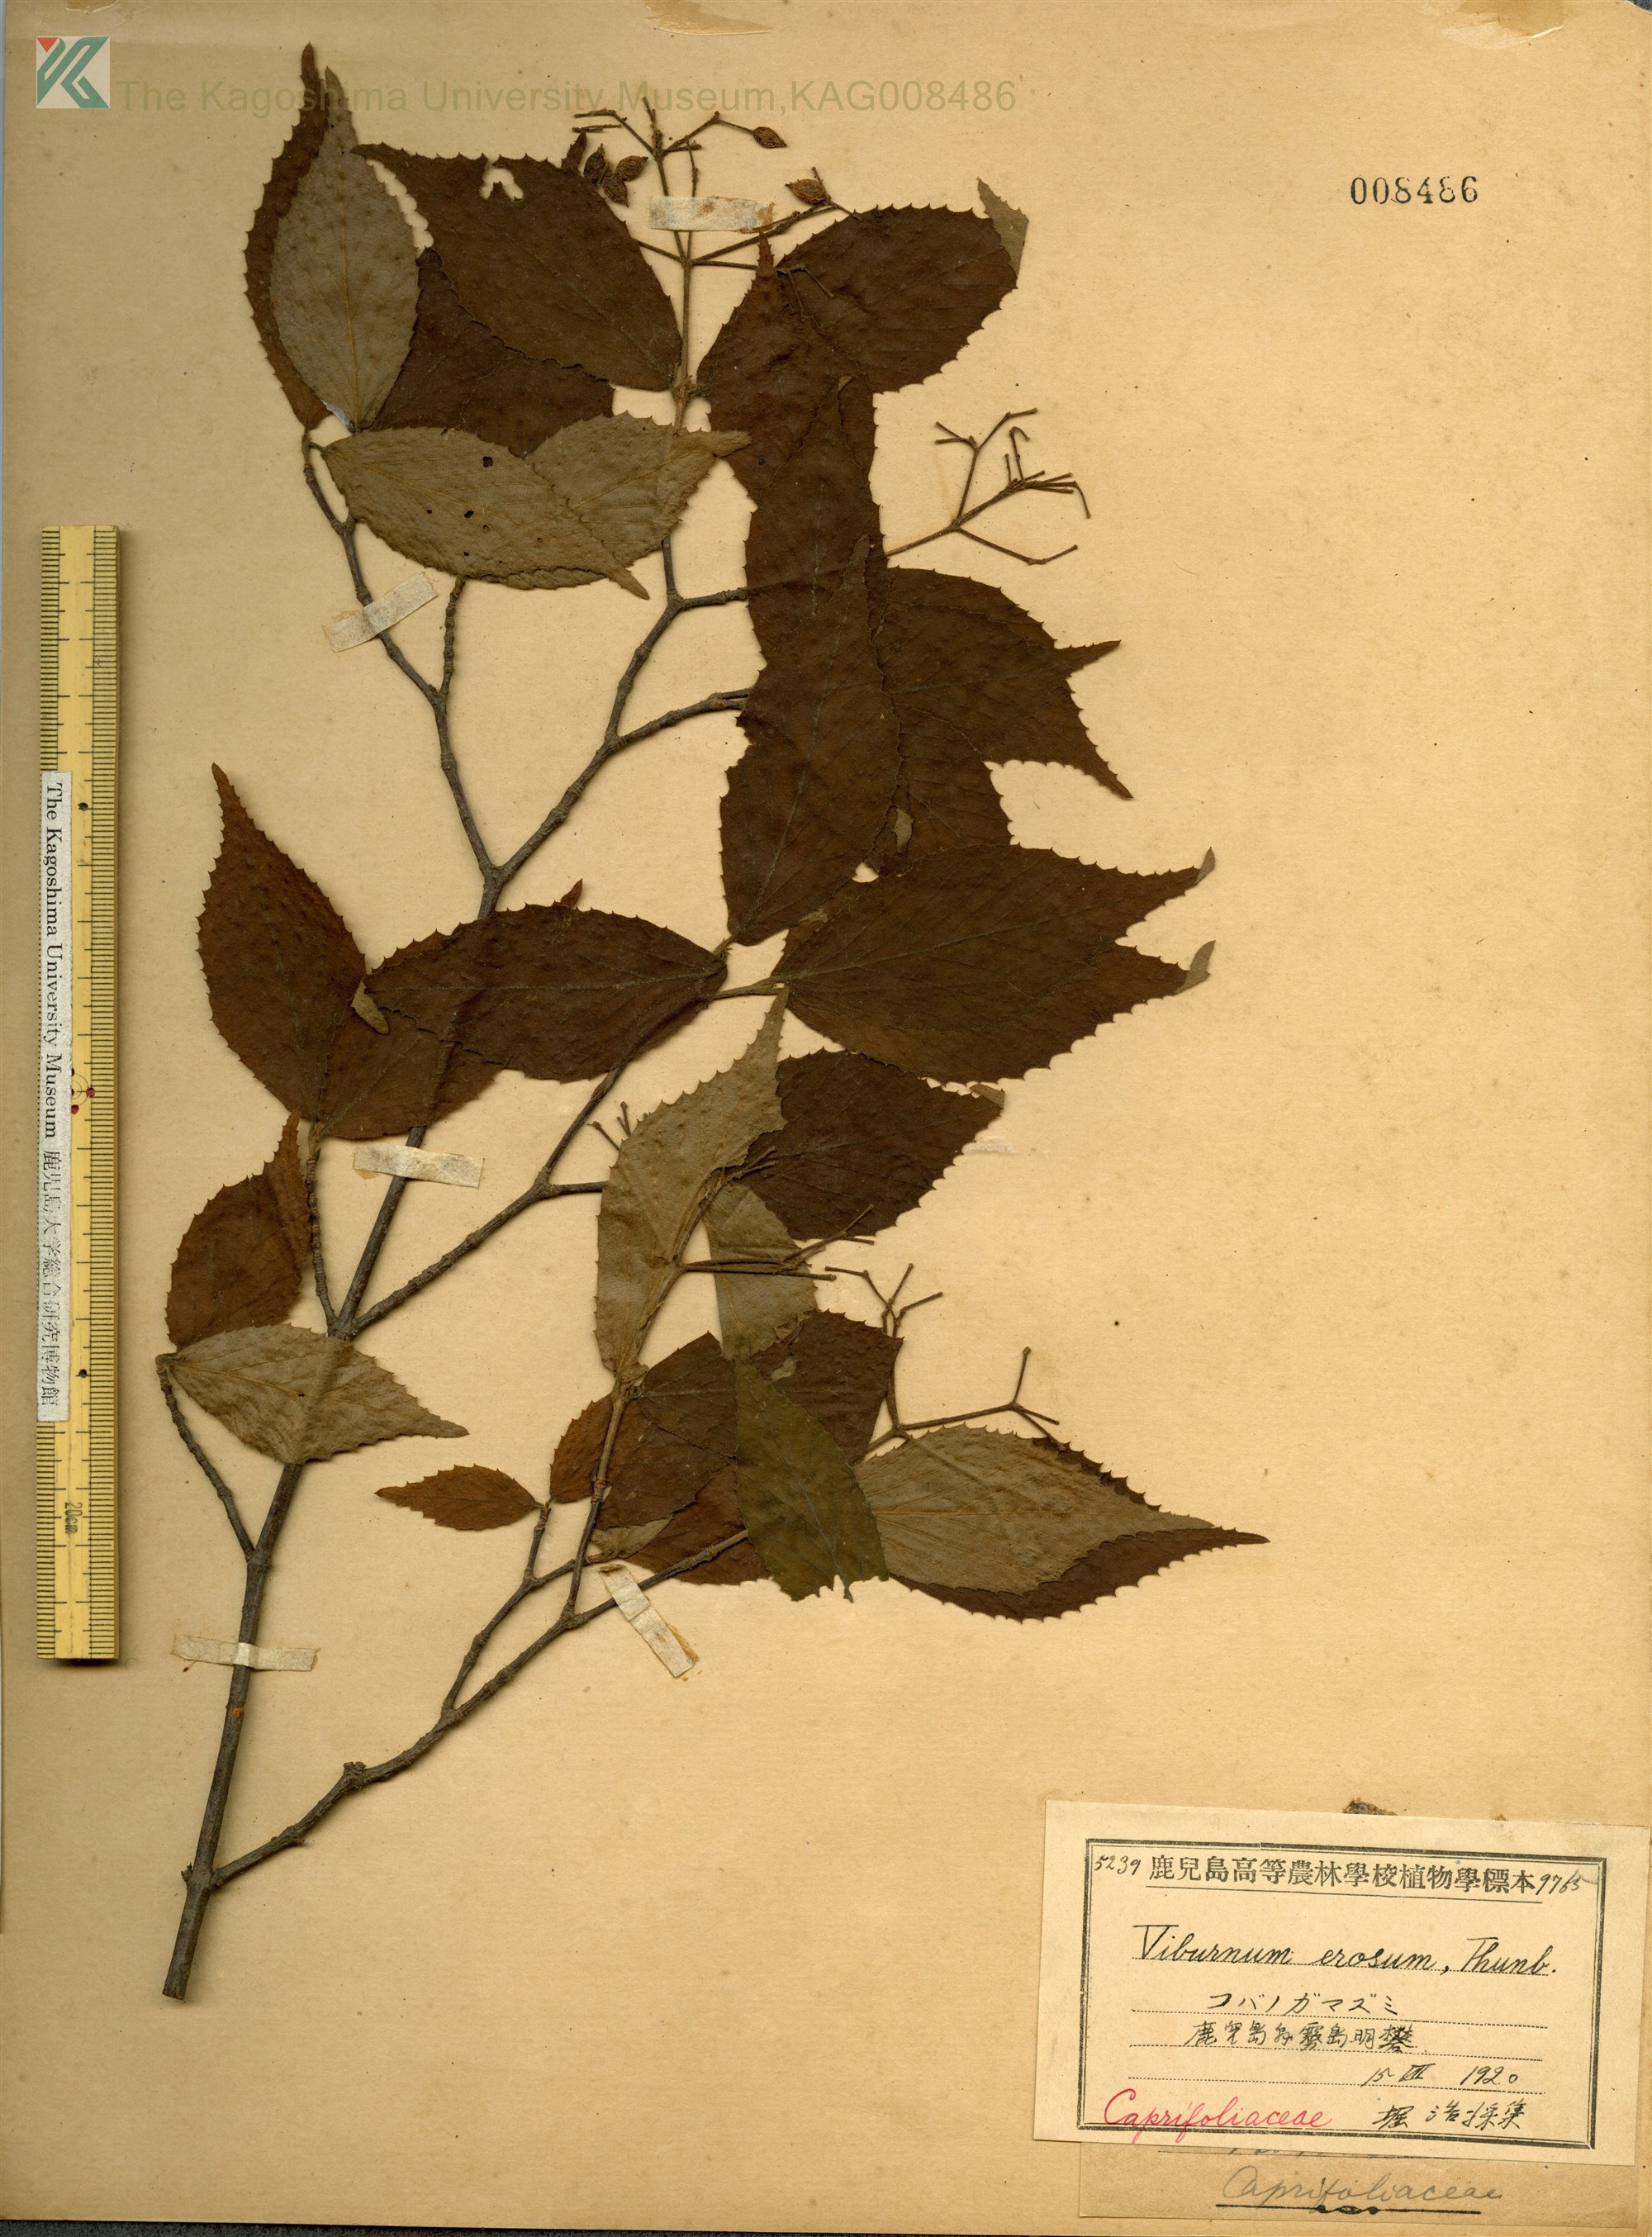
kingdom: Plantae
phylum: Tracheophyta
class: Magnoliopsida
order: Dipsacales
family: Viburnaceae
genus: Viburnum
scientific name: Viburnum erosum
